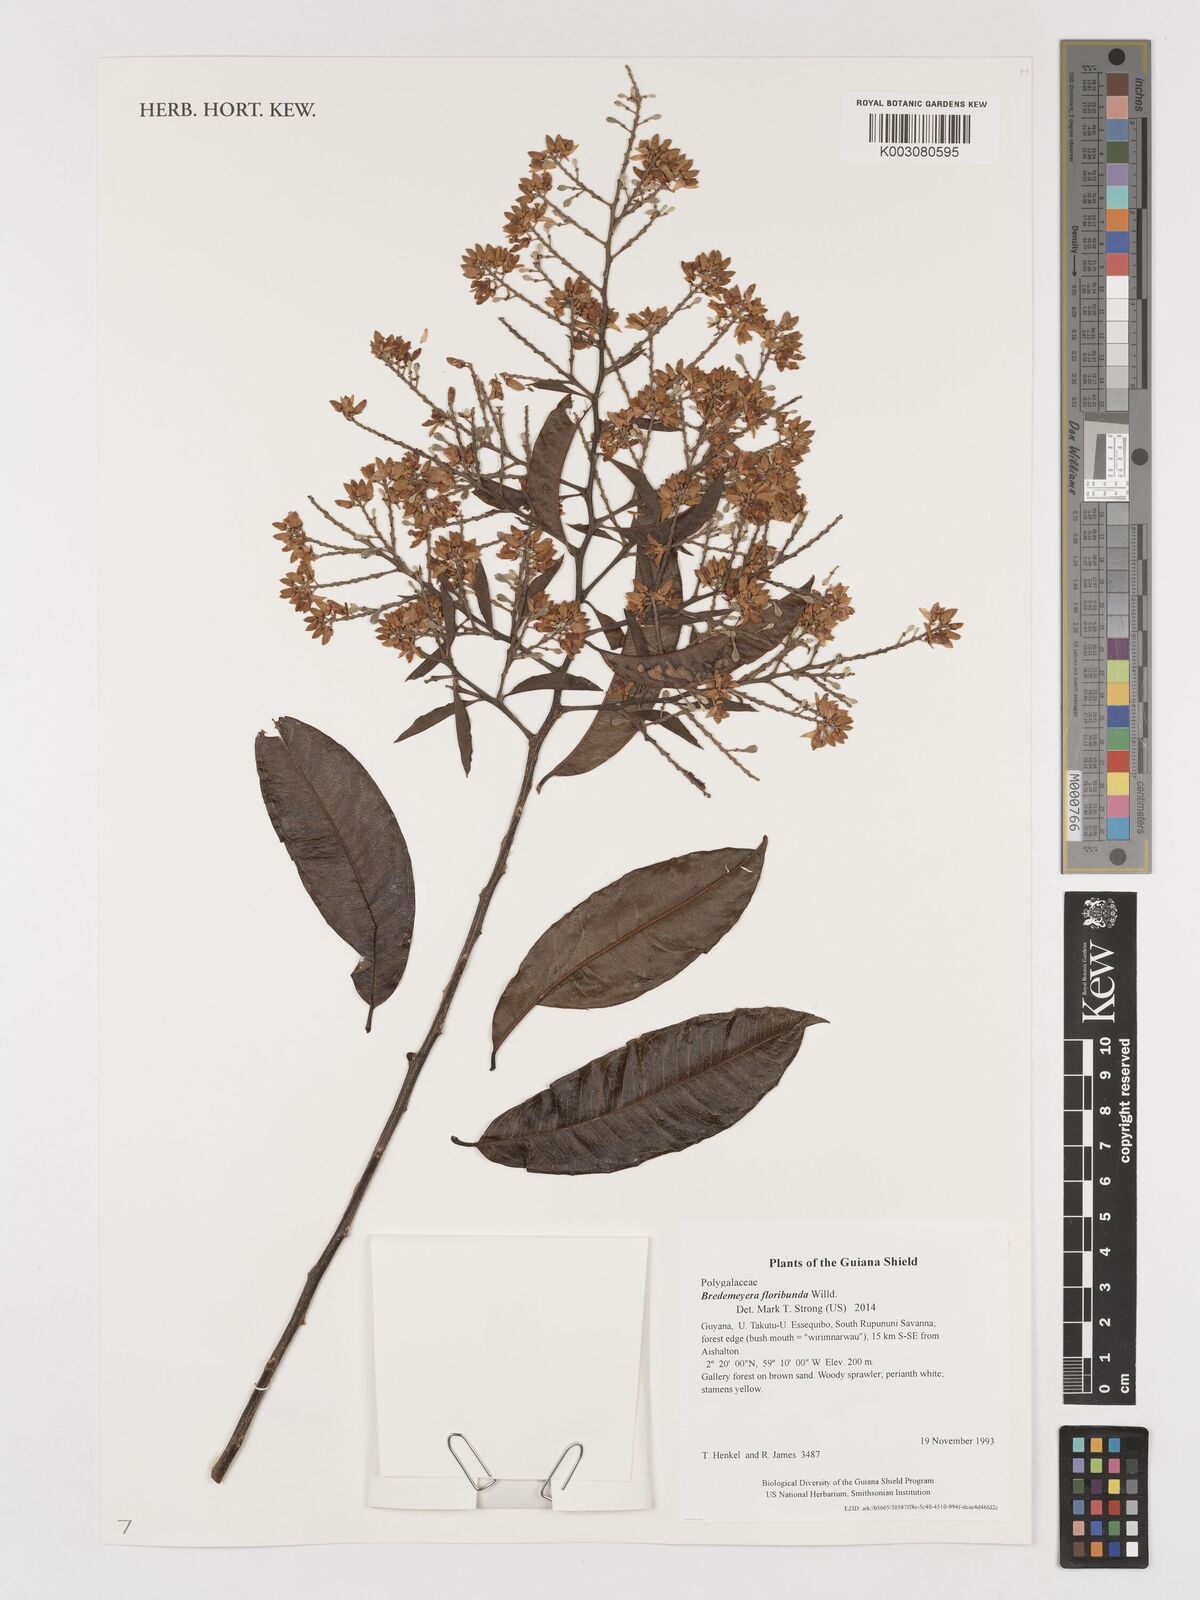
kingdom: Plantae
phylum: Tracheophyta
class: Magnoliopsida
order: Fabales
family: Polygalaceae
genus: Bredemeyera
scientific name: Bredemeyera floribunda
